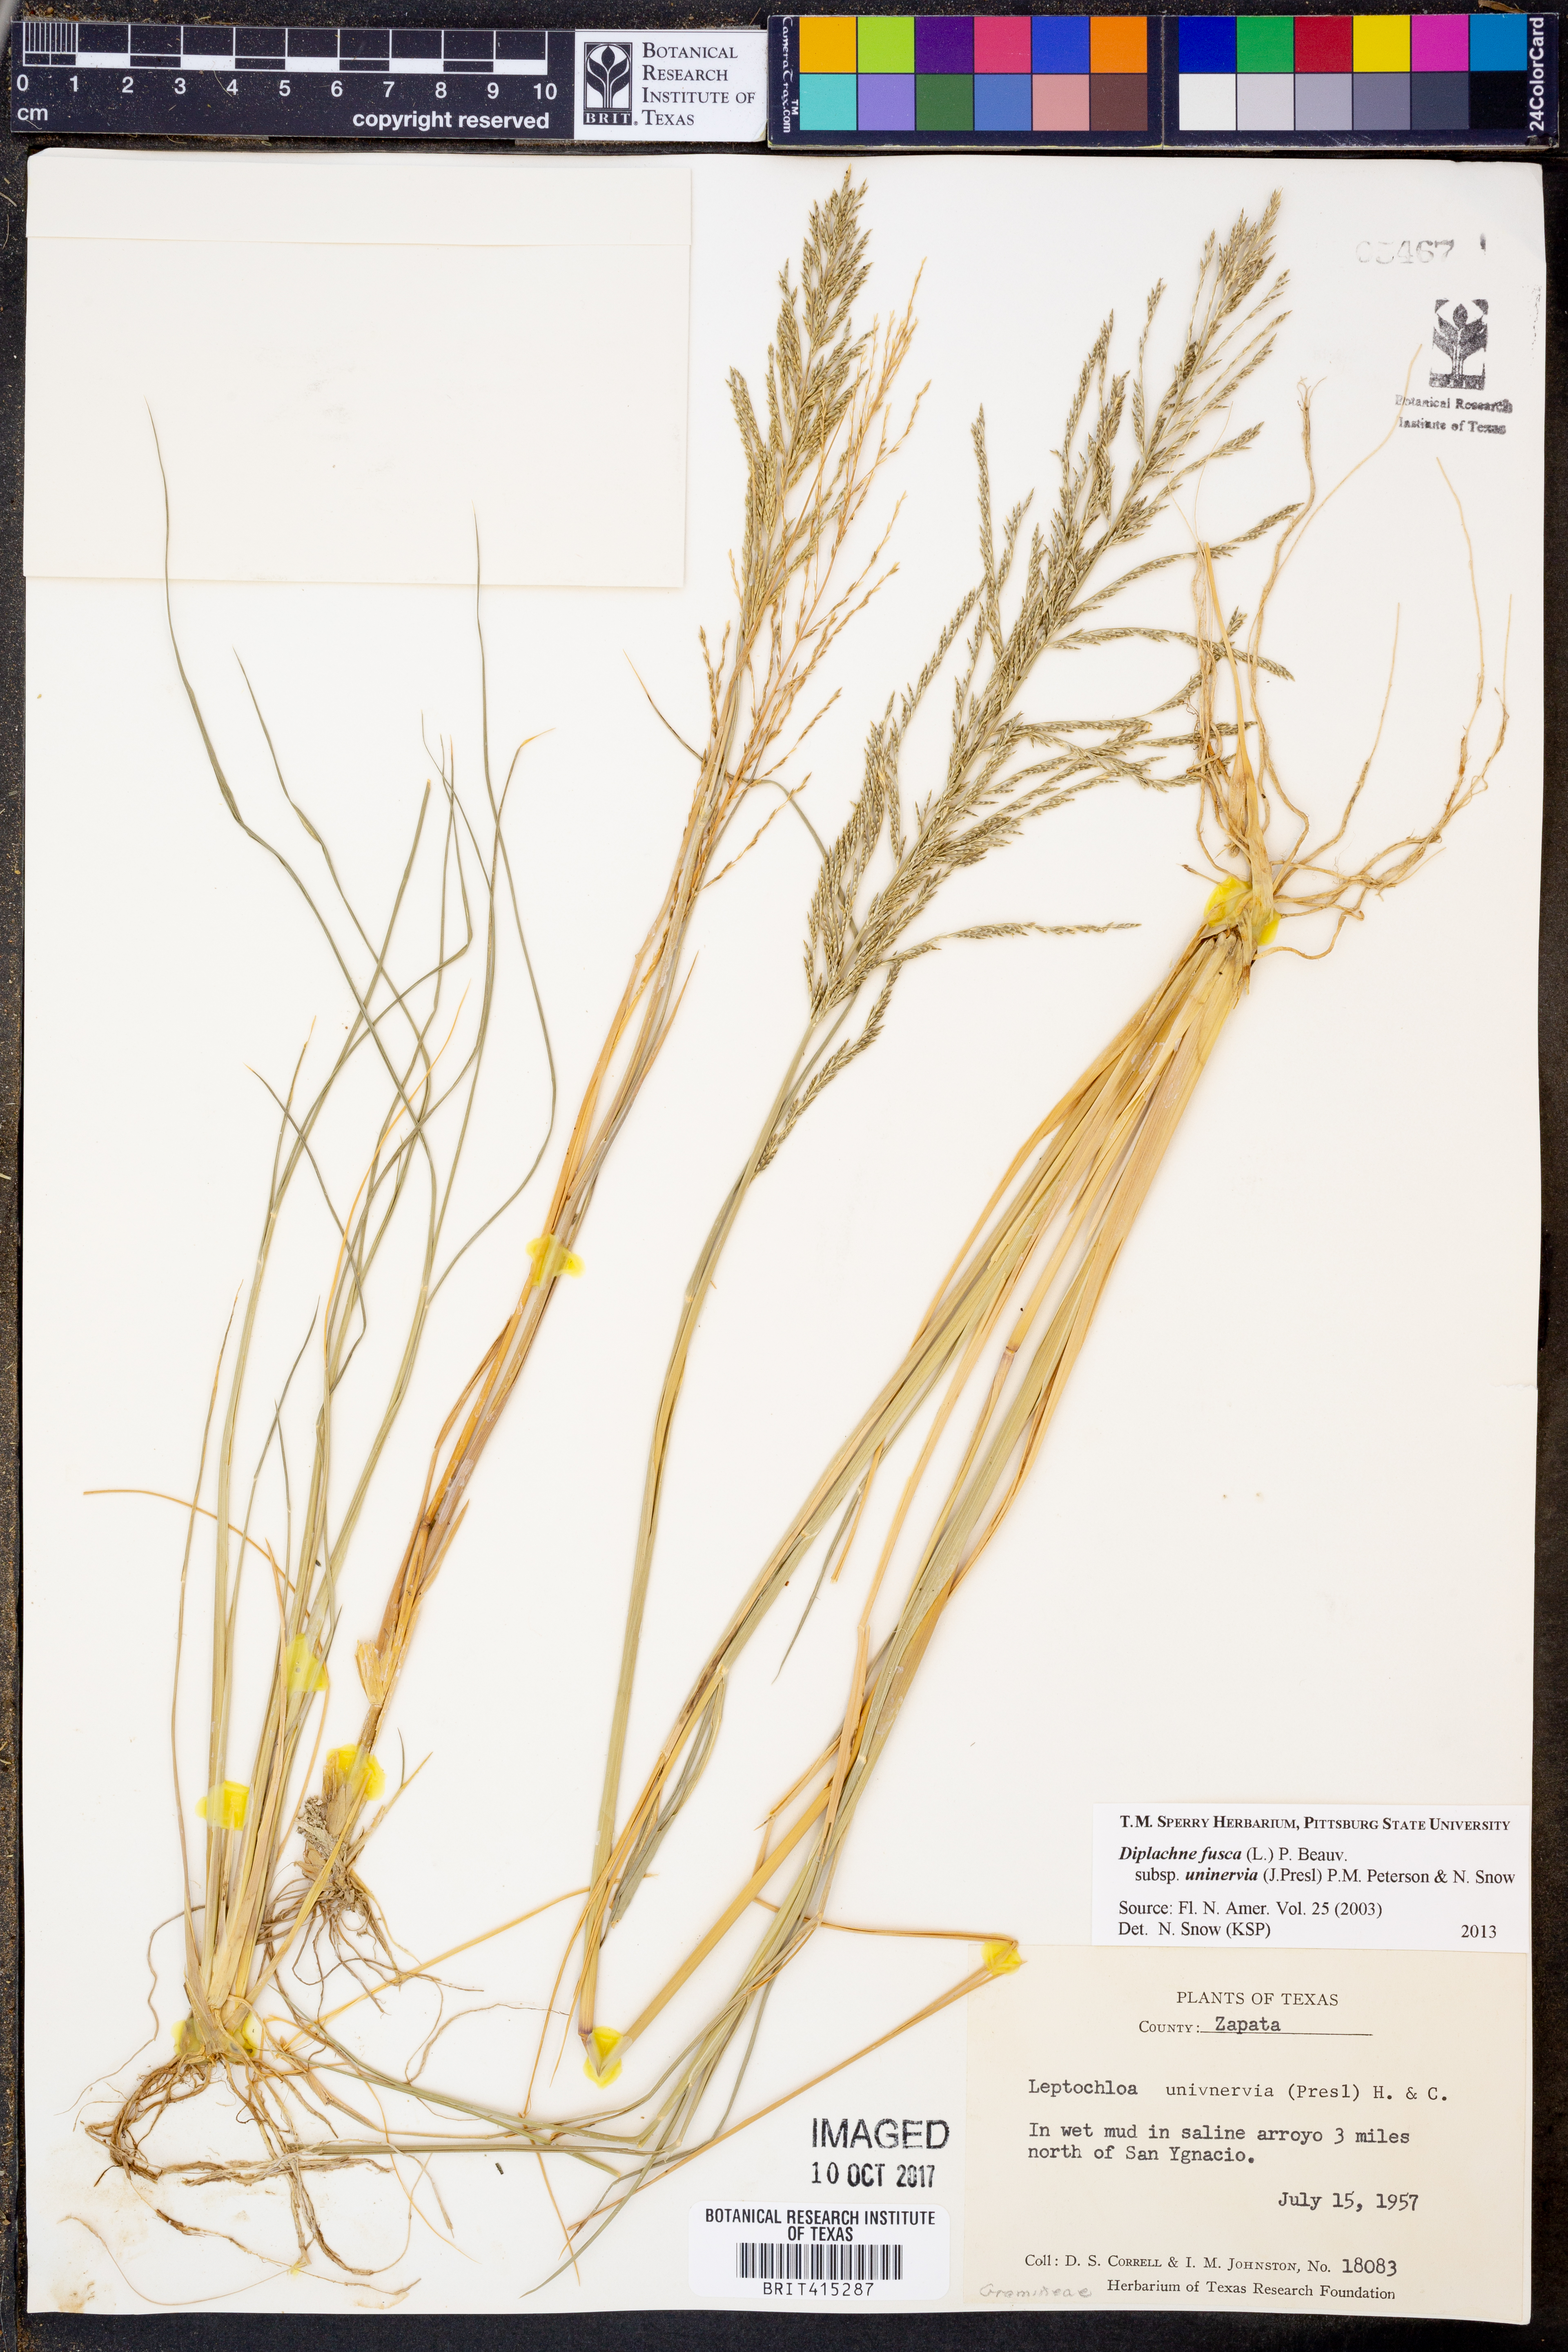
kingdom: Plantae
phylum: Tracheophyta
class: Liliopsida
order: Poales
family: Poaceae
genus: Diplachne
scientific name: Diplachne fusca
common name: Brown beetle grass
